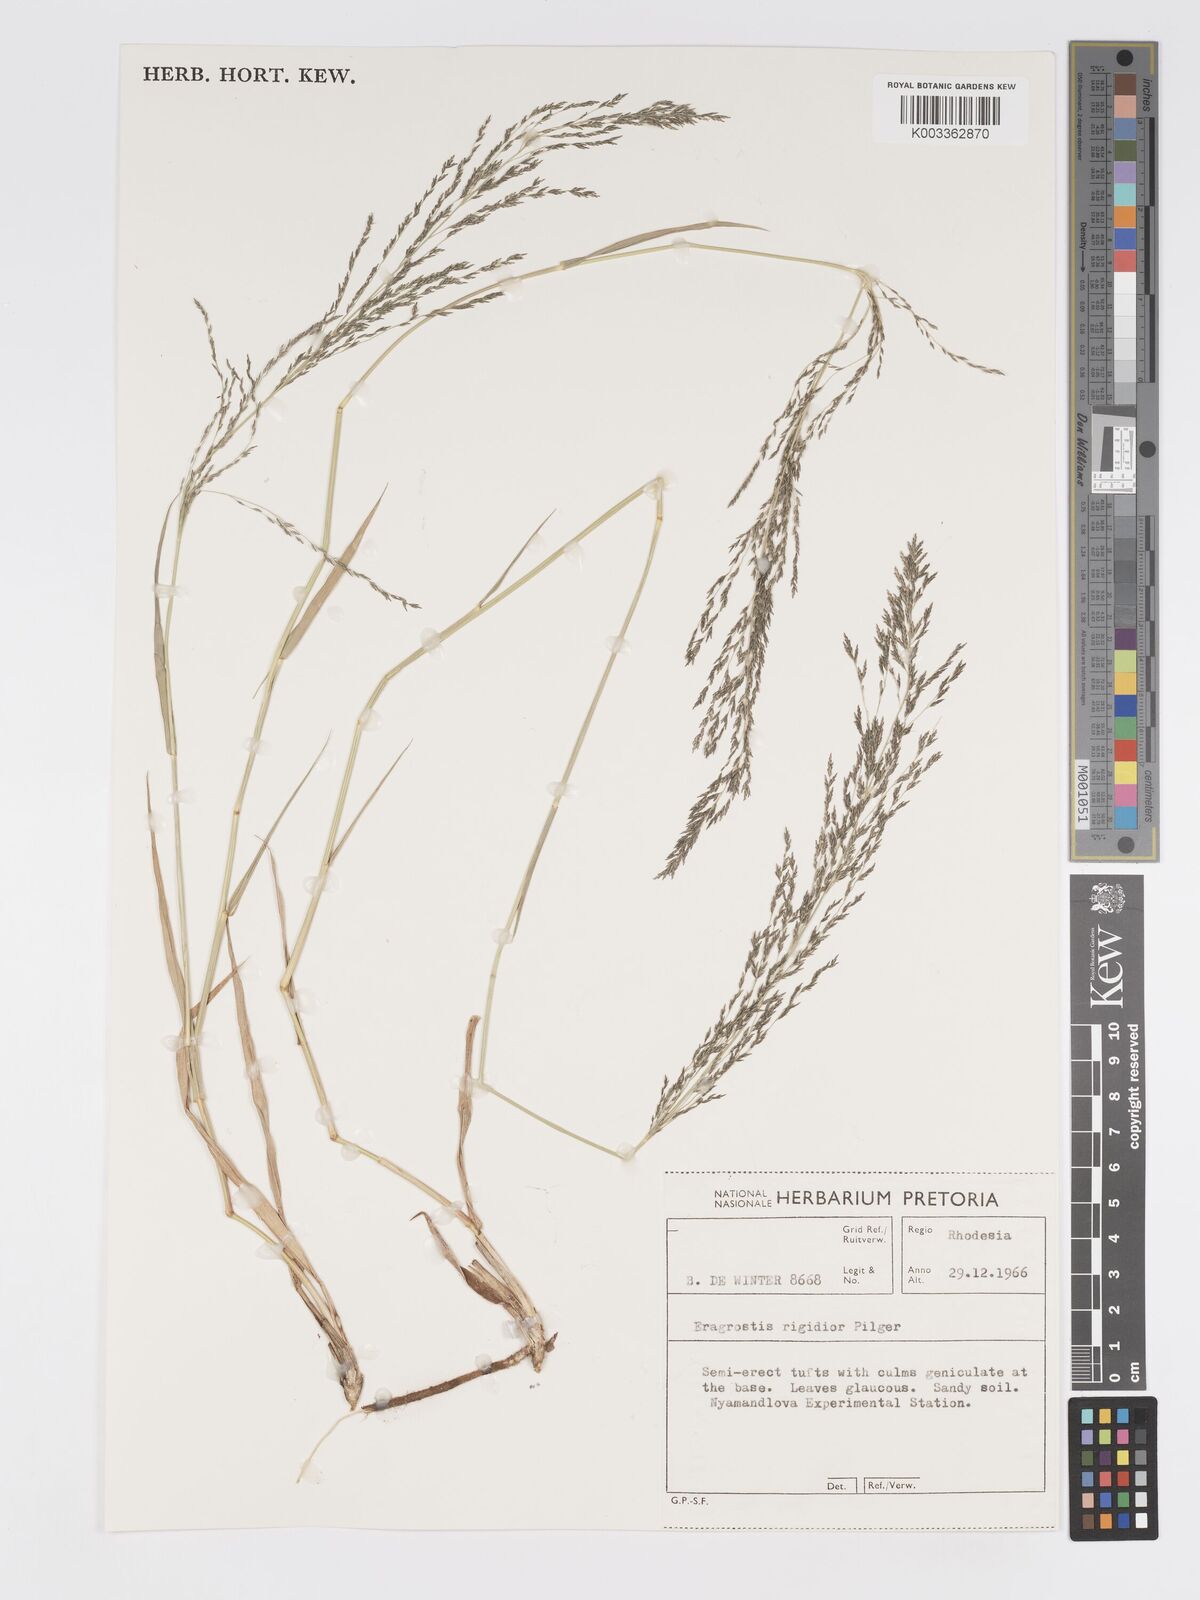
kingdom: Plantae
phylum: Tracheophyta
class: Liliopsida
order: Poales
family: Poaceae
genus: Eragrostis
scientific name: Eragrostis cylindriflora
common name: Cylinderflower lovegrass
